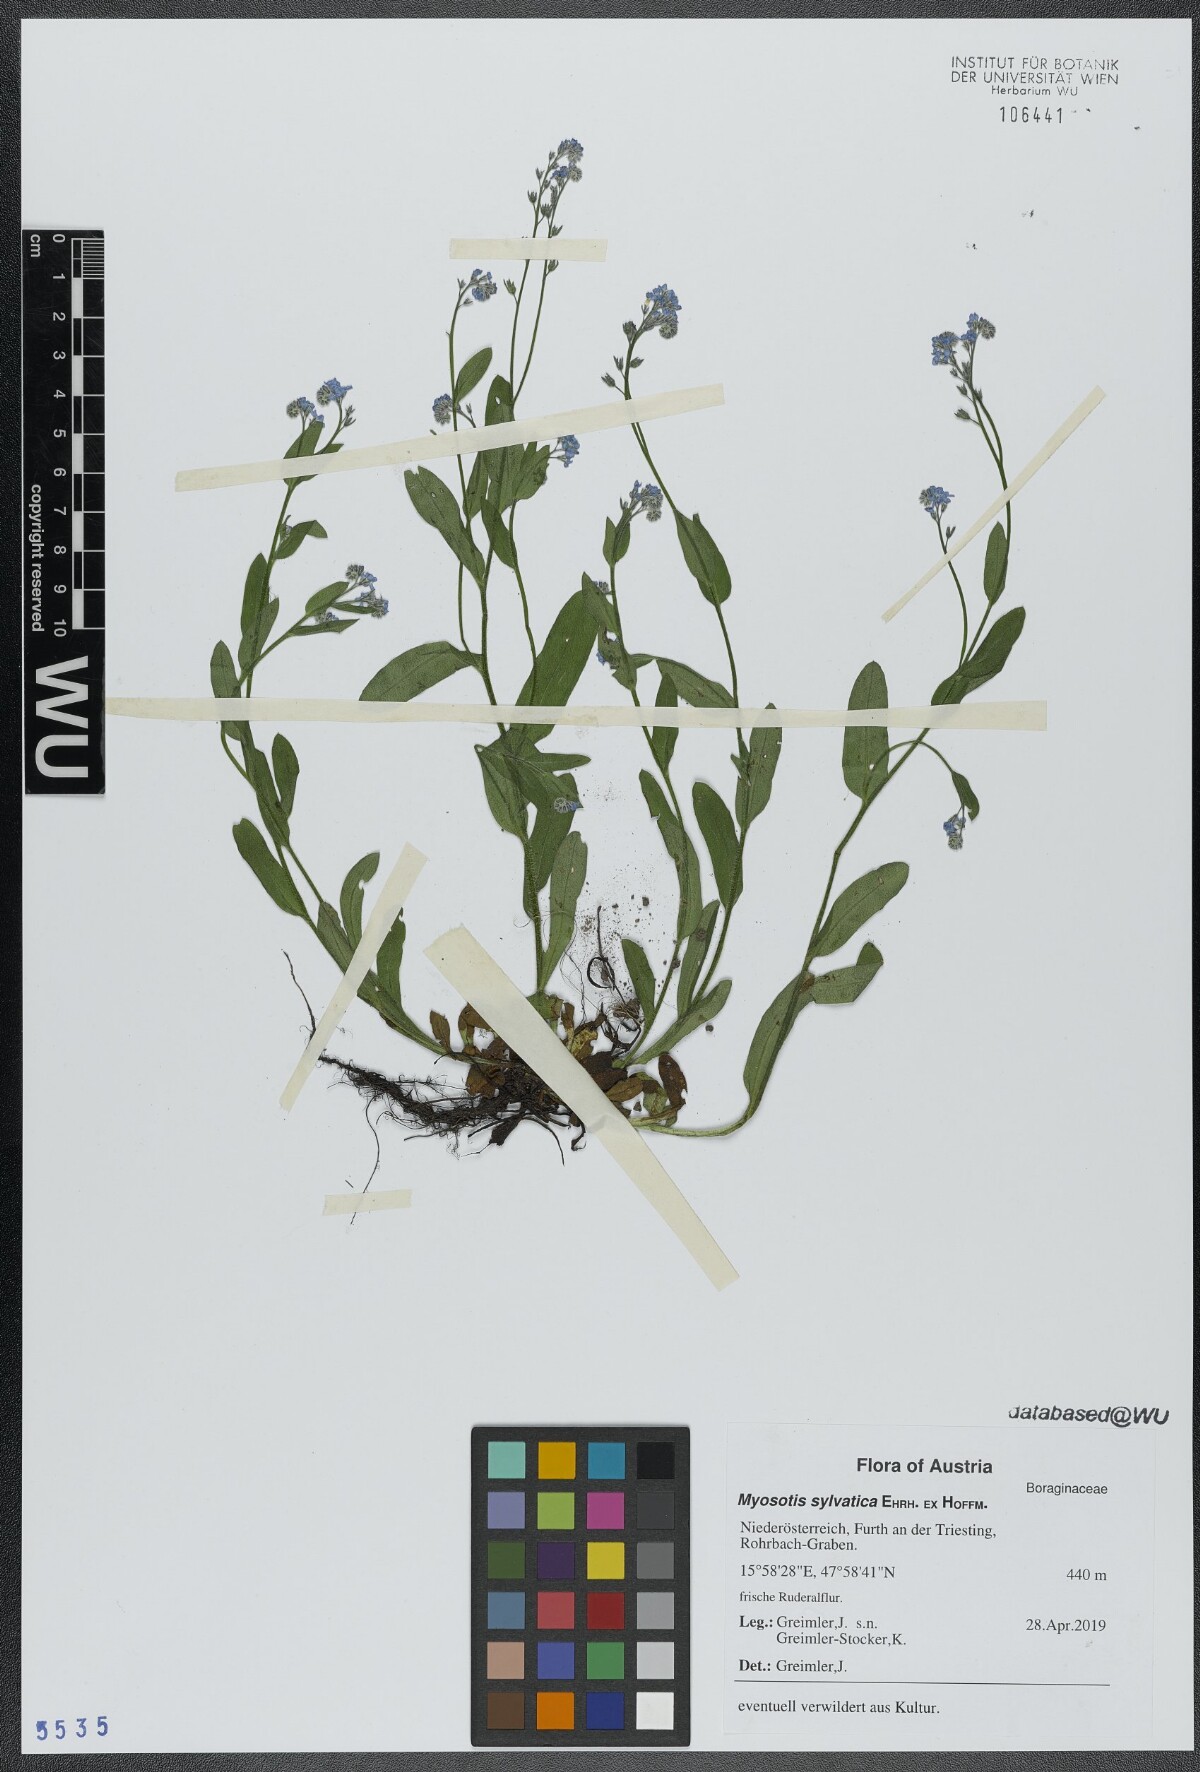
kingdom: Plantae
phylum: Tracheophyta
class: Magnoliopsida
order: Boraginales
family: Boraginaceae
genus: Myosotis
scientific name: Myosotis sylvatica
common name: Wood forget-me-not
